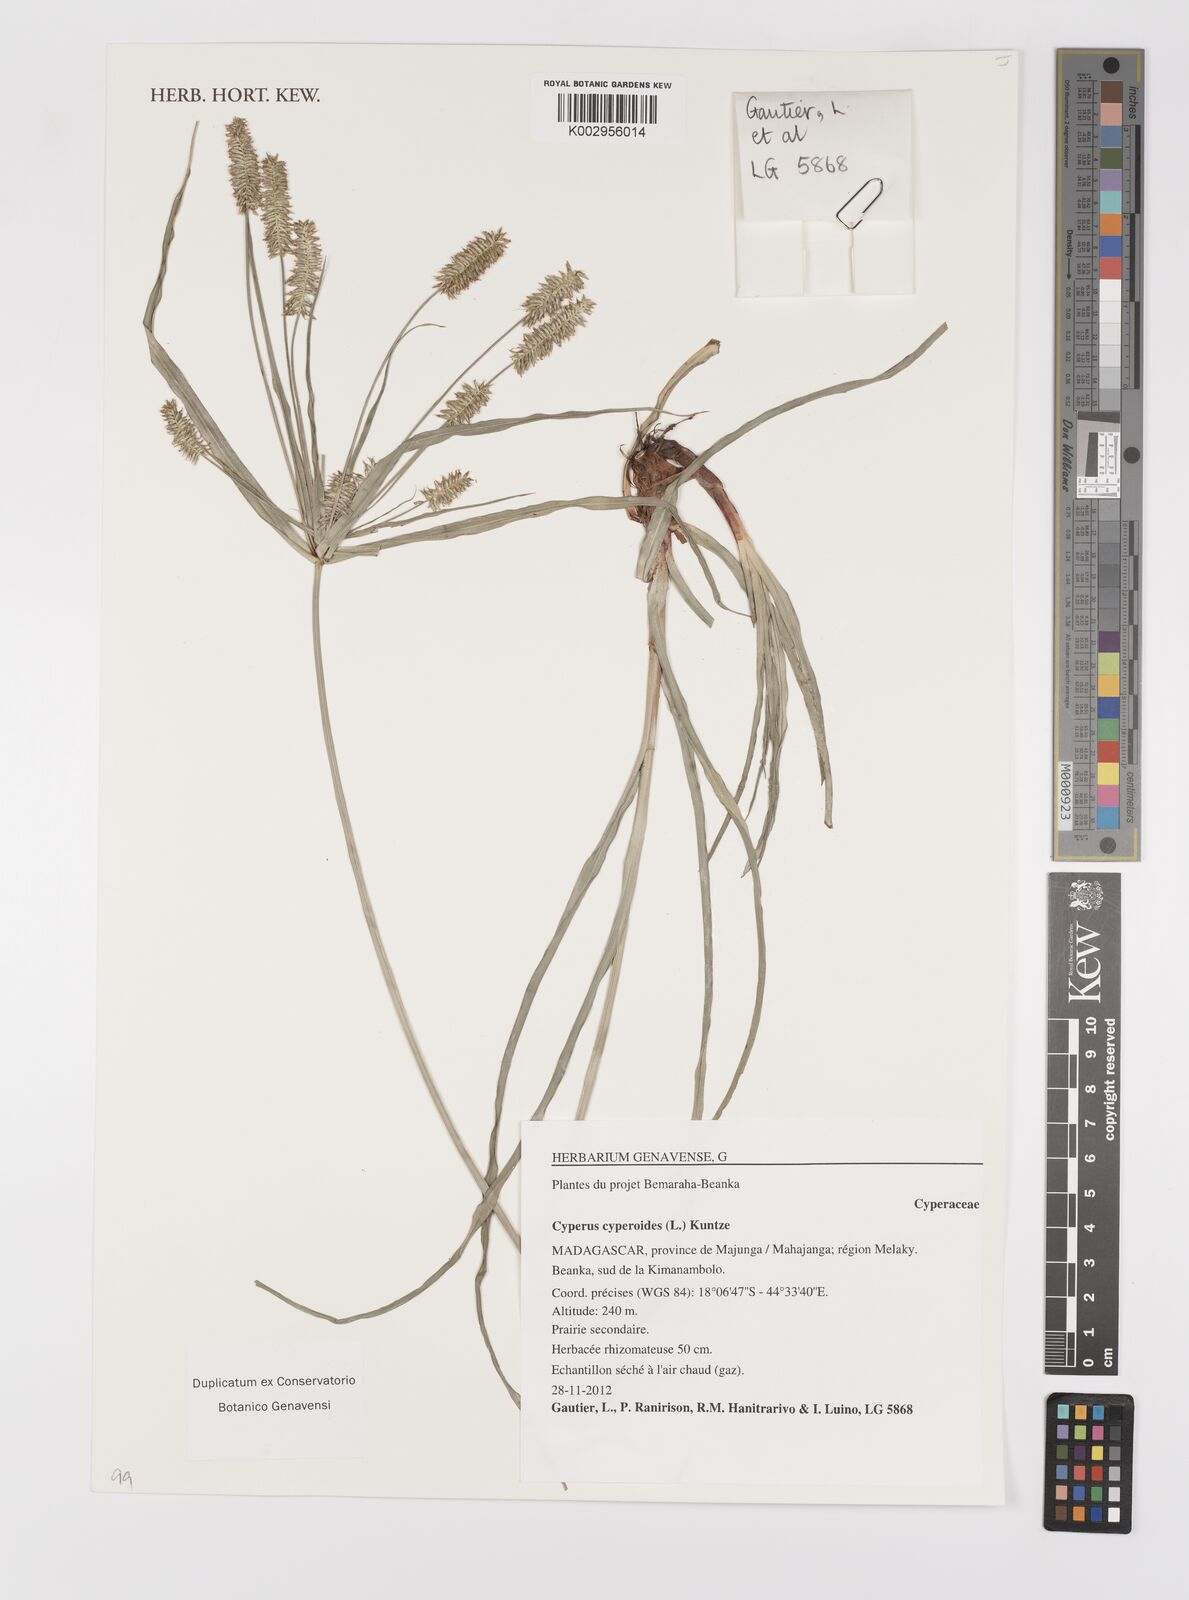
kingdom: Plantae
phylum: Tracheophyta
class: Liliopsida
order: Poales
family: Cyperaceae
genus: Cyperus
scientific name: Cyperus cyperoides
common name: Pacific island flat sedge
